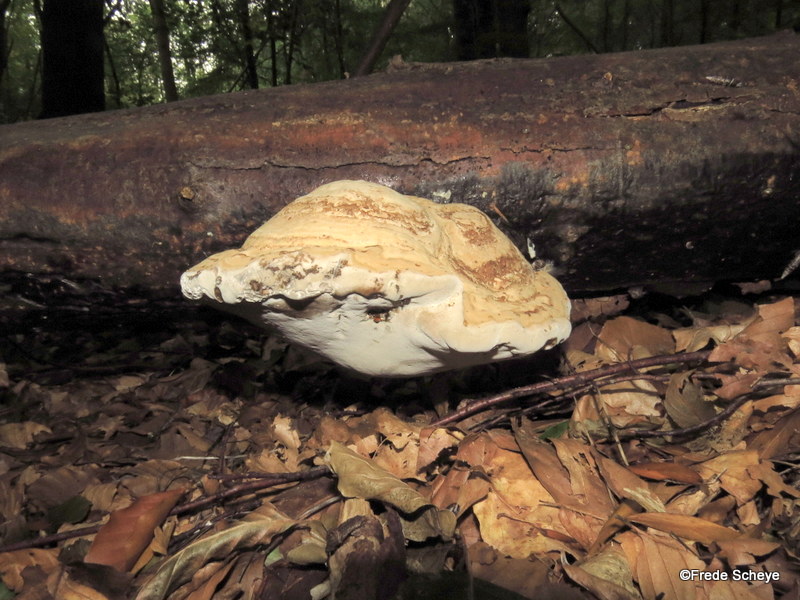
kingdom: Fungi
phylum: Basidiomycota
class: Agaricomycetes
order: Polyporales
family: Polyporaceae
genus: Fomes
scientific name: Fomes fomentarius
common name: tøndersvamp
